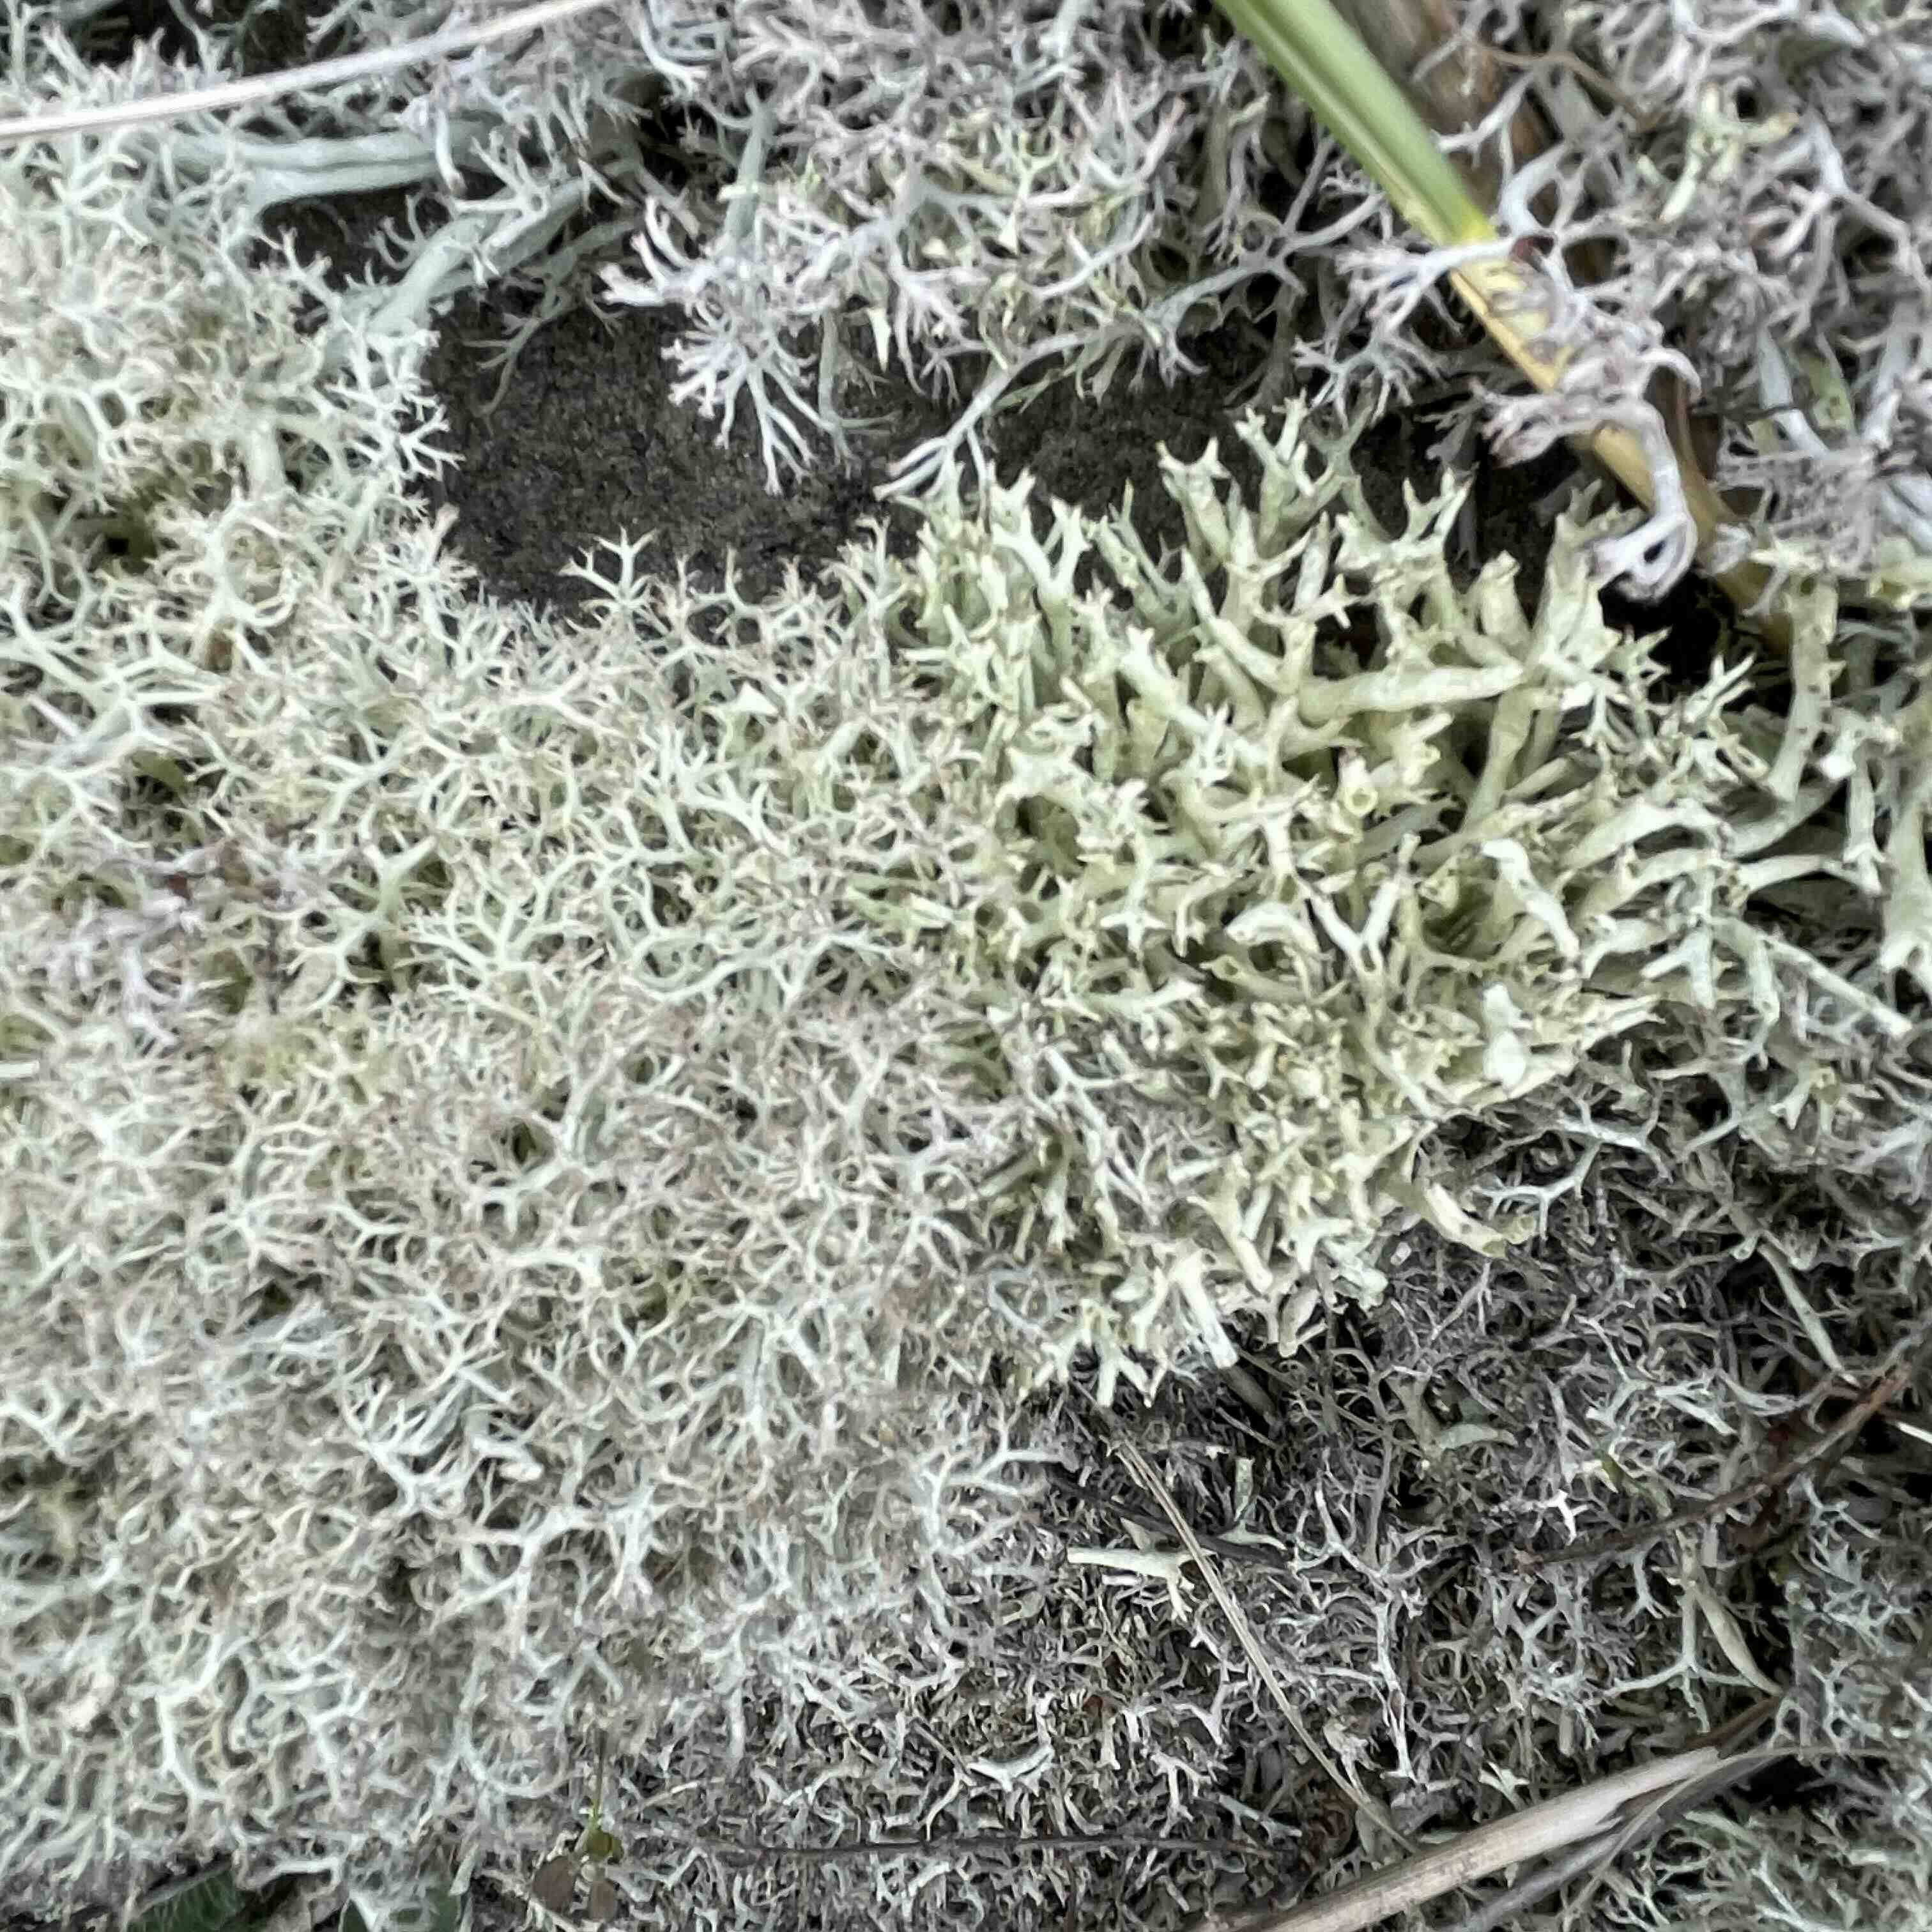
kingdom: Fungi
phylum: Ascomycota
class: Lecanoromycetes
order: Lecanorales
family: Cladoniaceae
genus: Cladonia
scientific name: Cladonia uncialis
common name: pigget bægerlav
